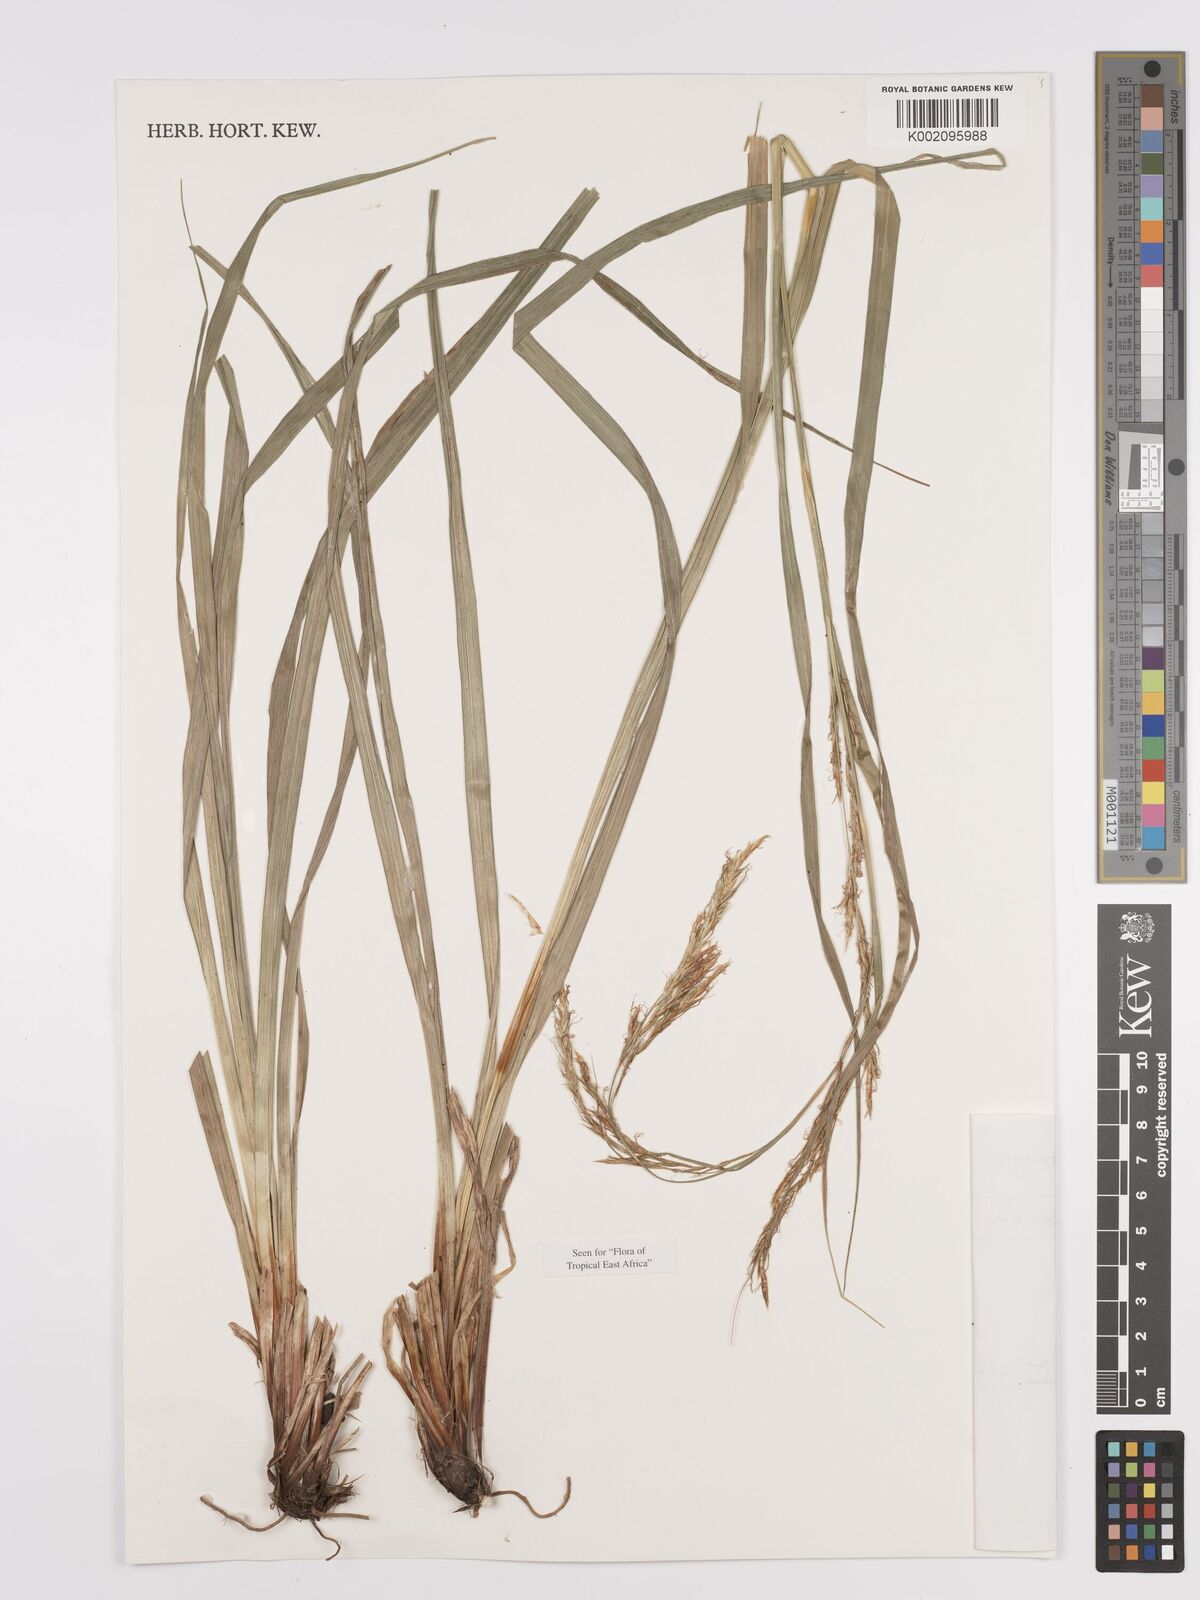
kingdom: Plantae
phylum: Tracheophyta
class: Liliopsida
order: Poales
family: Cyperaceae
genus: Carex
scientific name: Carex johnstonii
